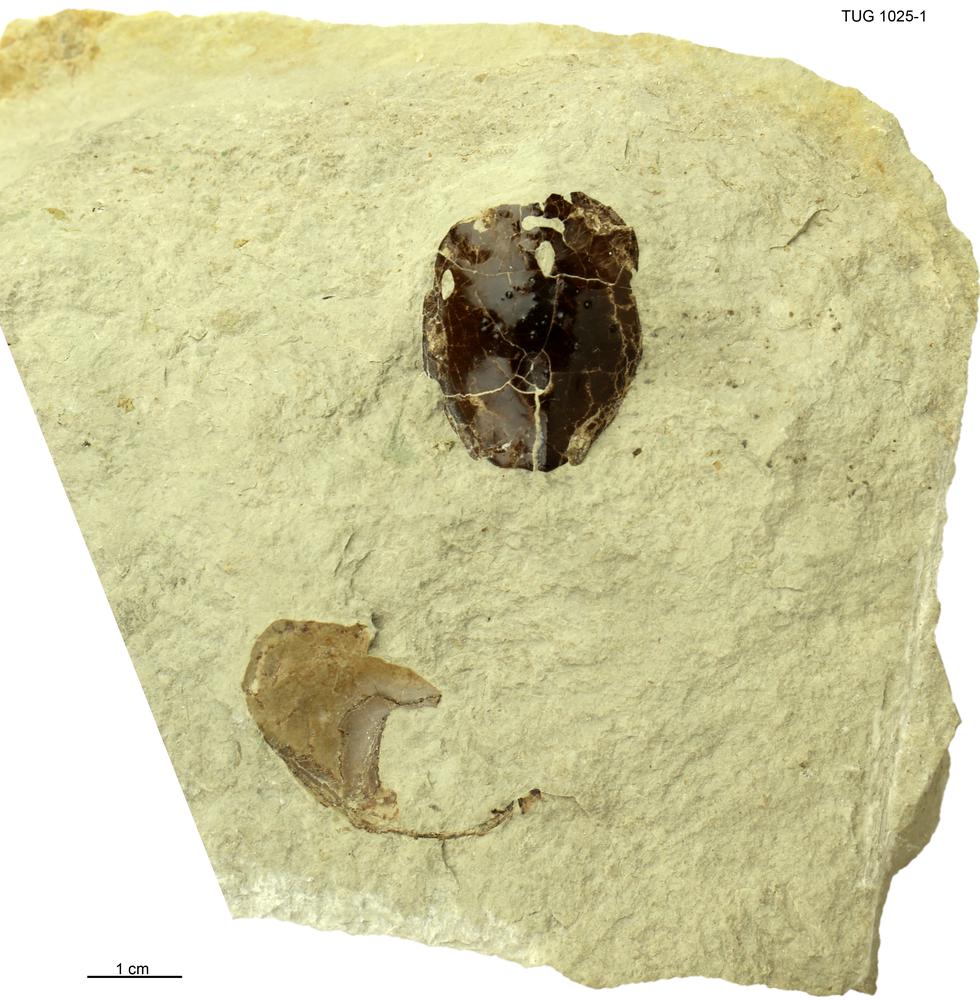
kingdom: Animalia
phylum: Chordata
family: Tremataspididae
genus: Tremataspis
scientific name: Tremataspis
